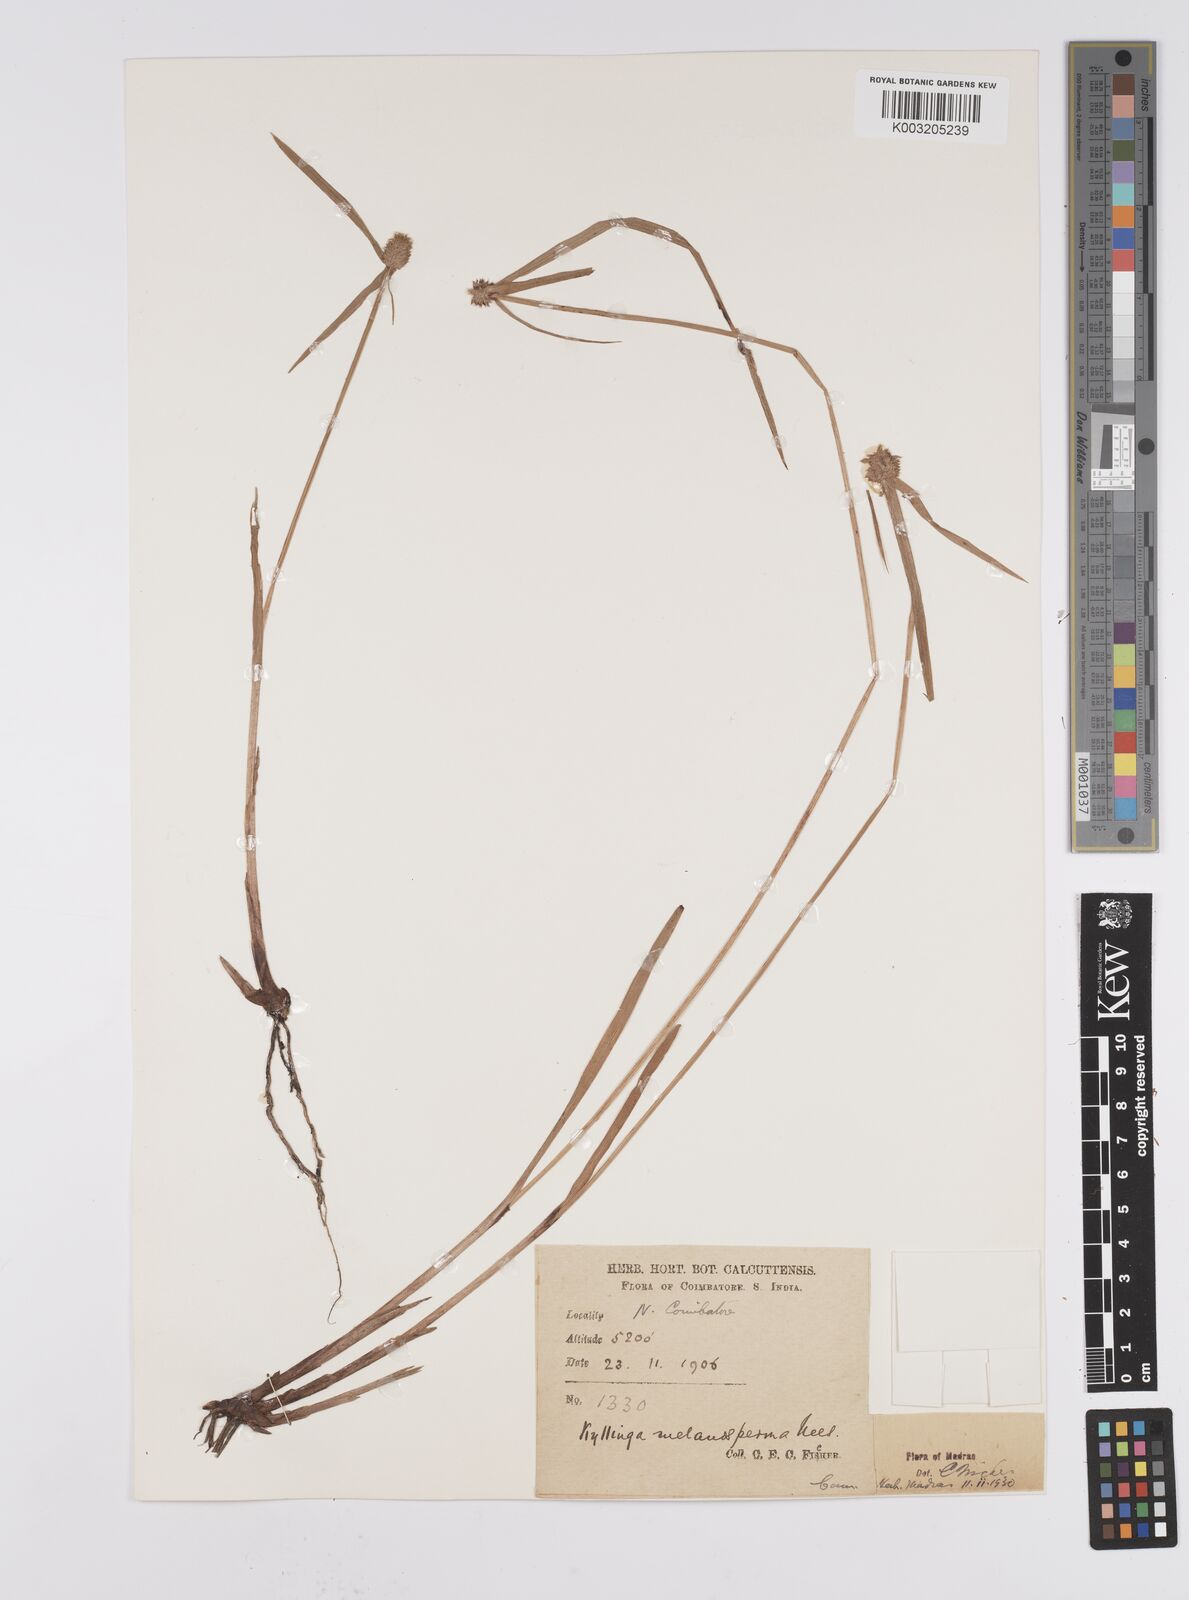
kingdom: Plantae
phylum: Tracheophyta
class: Liliopsida
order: Poales
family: Cyperaceae
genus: Cyperus
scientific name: Cyperus melanospermus
